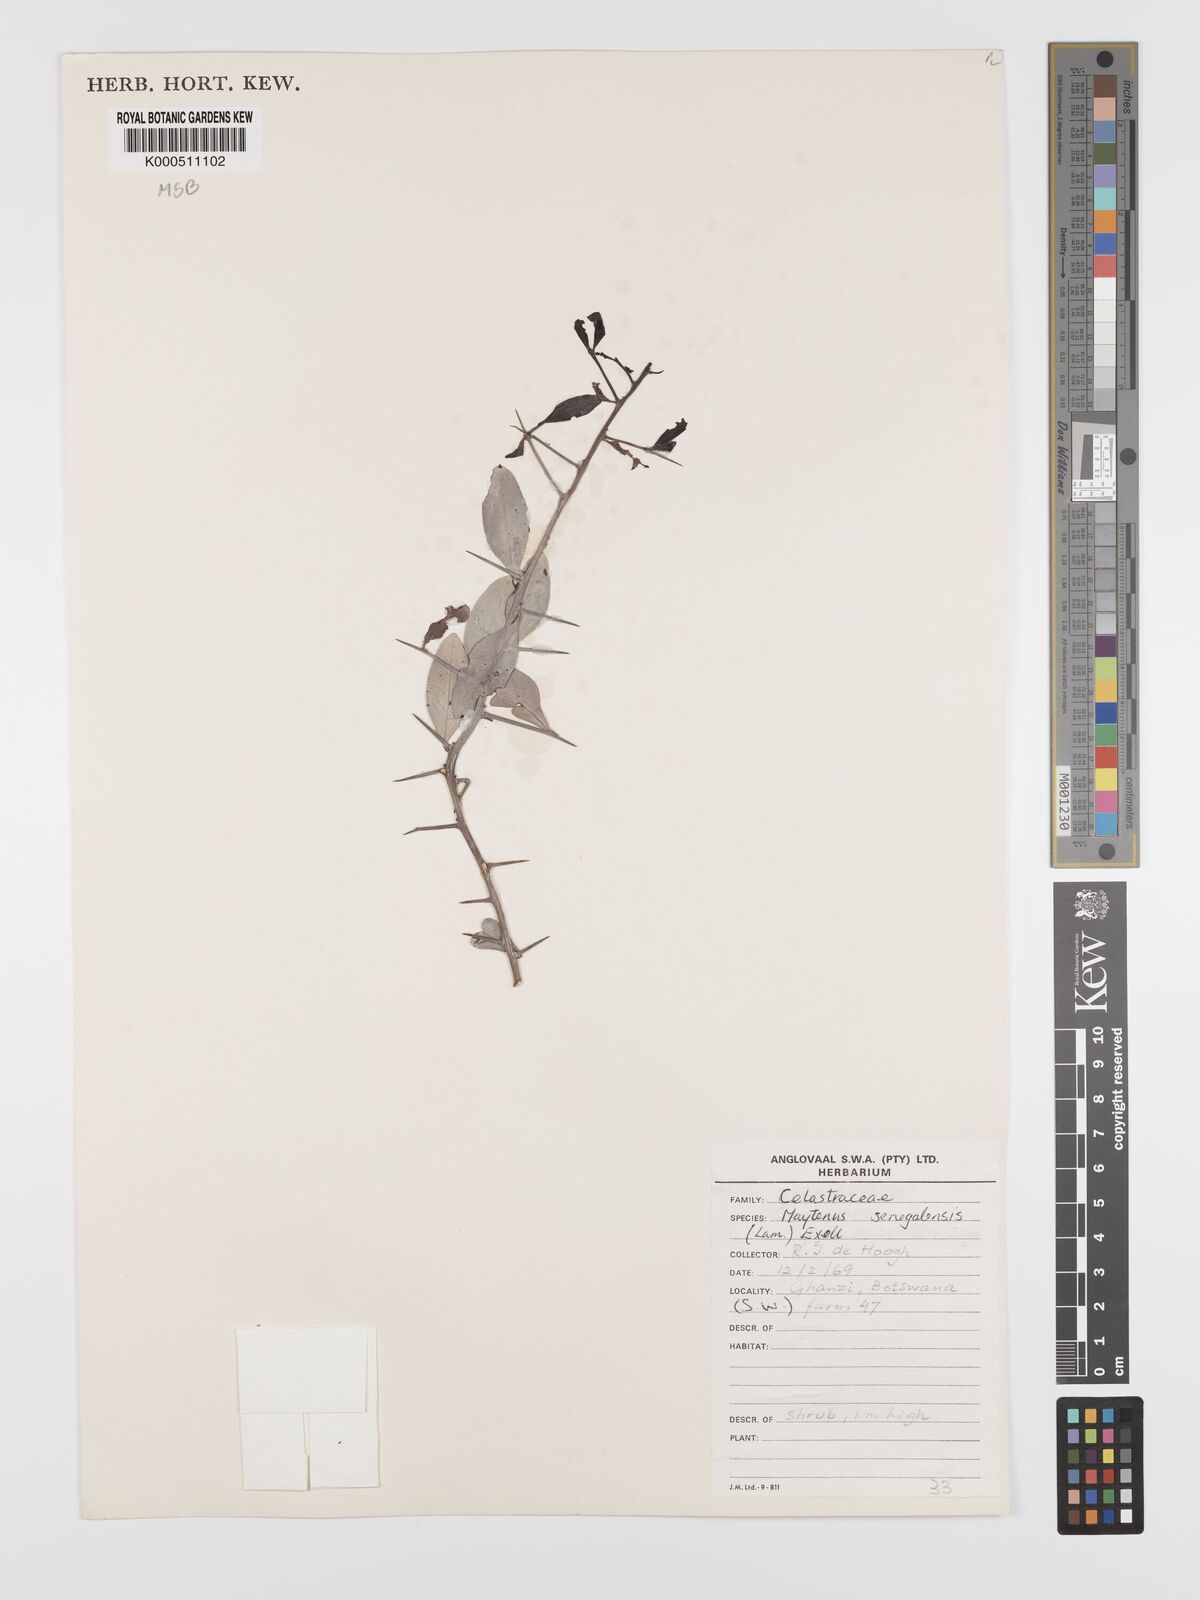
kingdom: Plantae
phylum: Tracheophyta
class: Magnoliopsida
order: Celastrales
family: Celastraceae
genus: Gymnosporia
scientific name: Gymnosporia senegalensis
